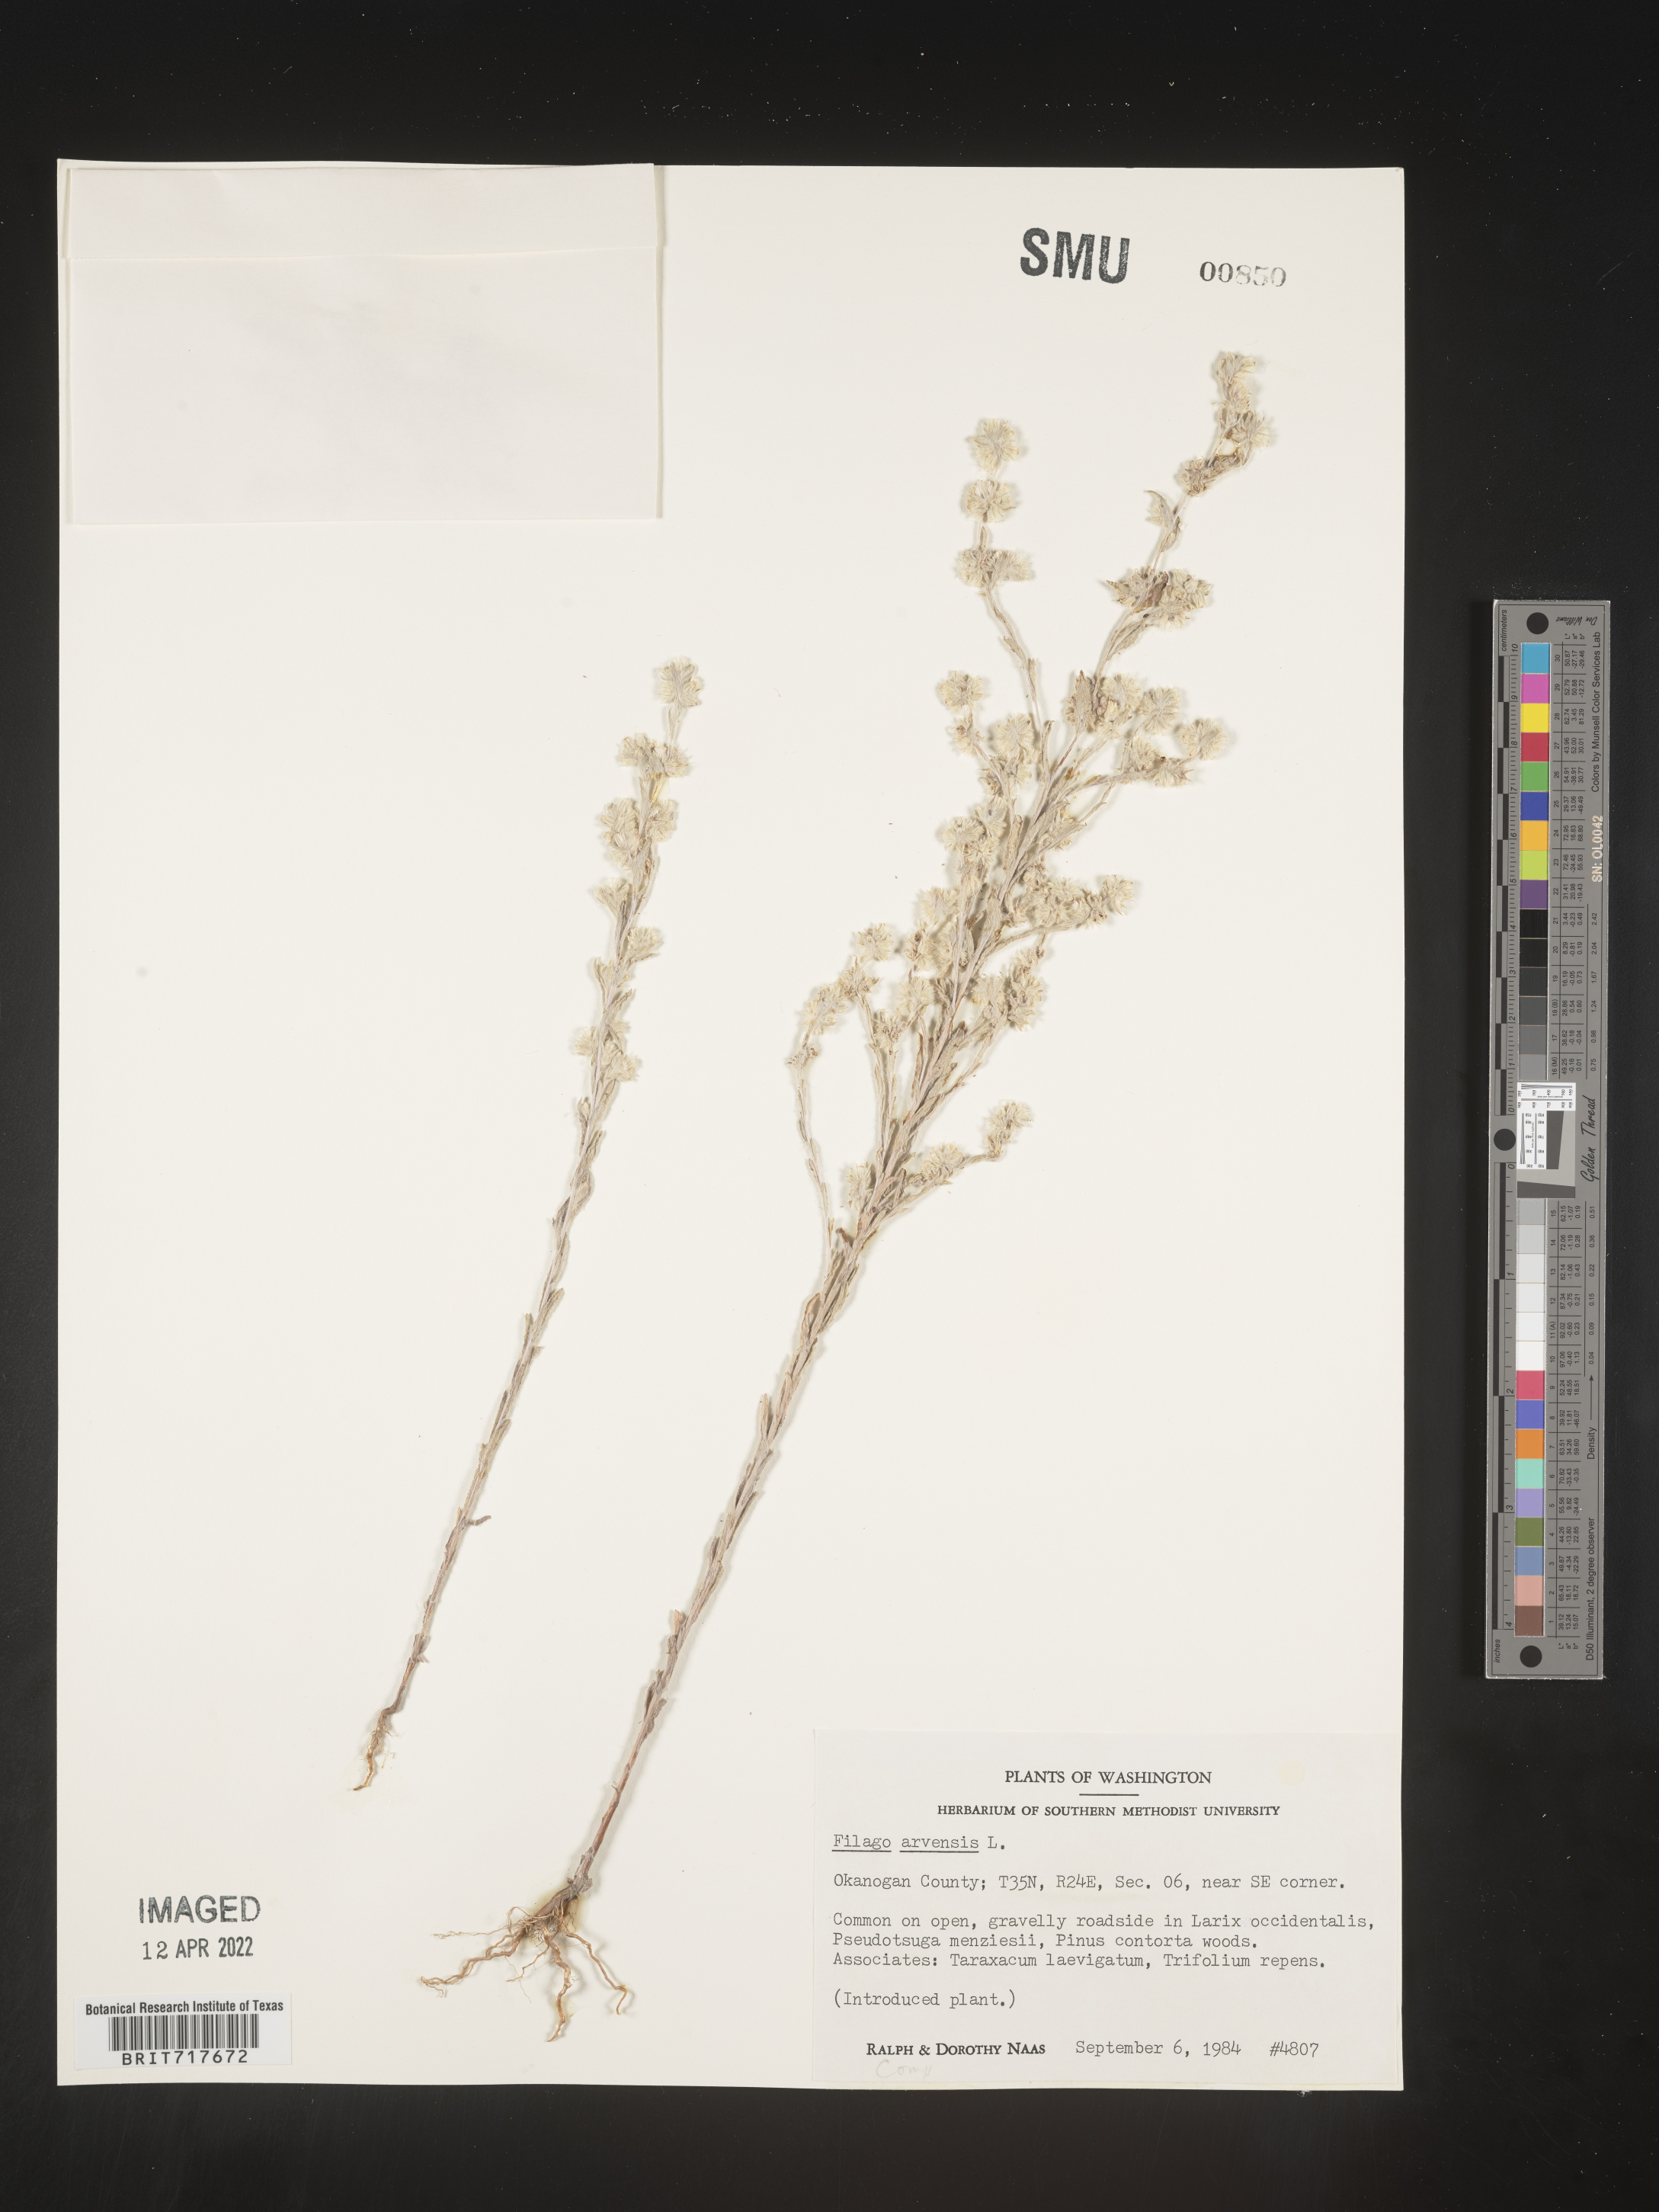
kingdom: Plantae
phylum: Tracheophyta
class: Magnoliopsida
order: Asterales
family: Asteraceae
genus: Filago
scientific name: Filago arvensis
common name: Field cudweed
